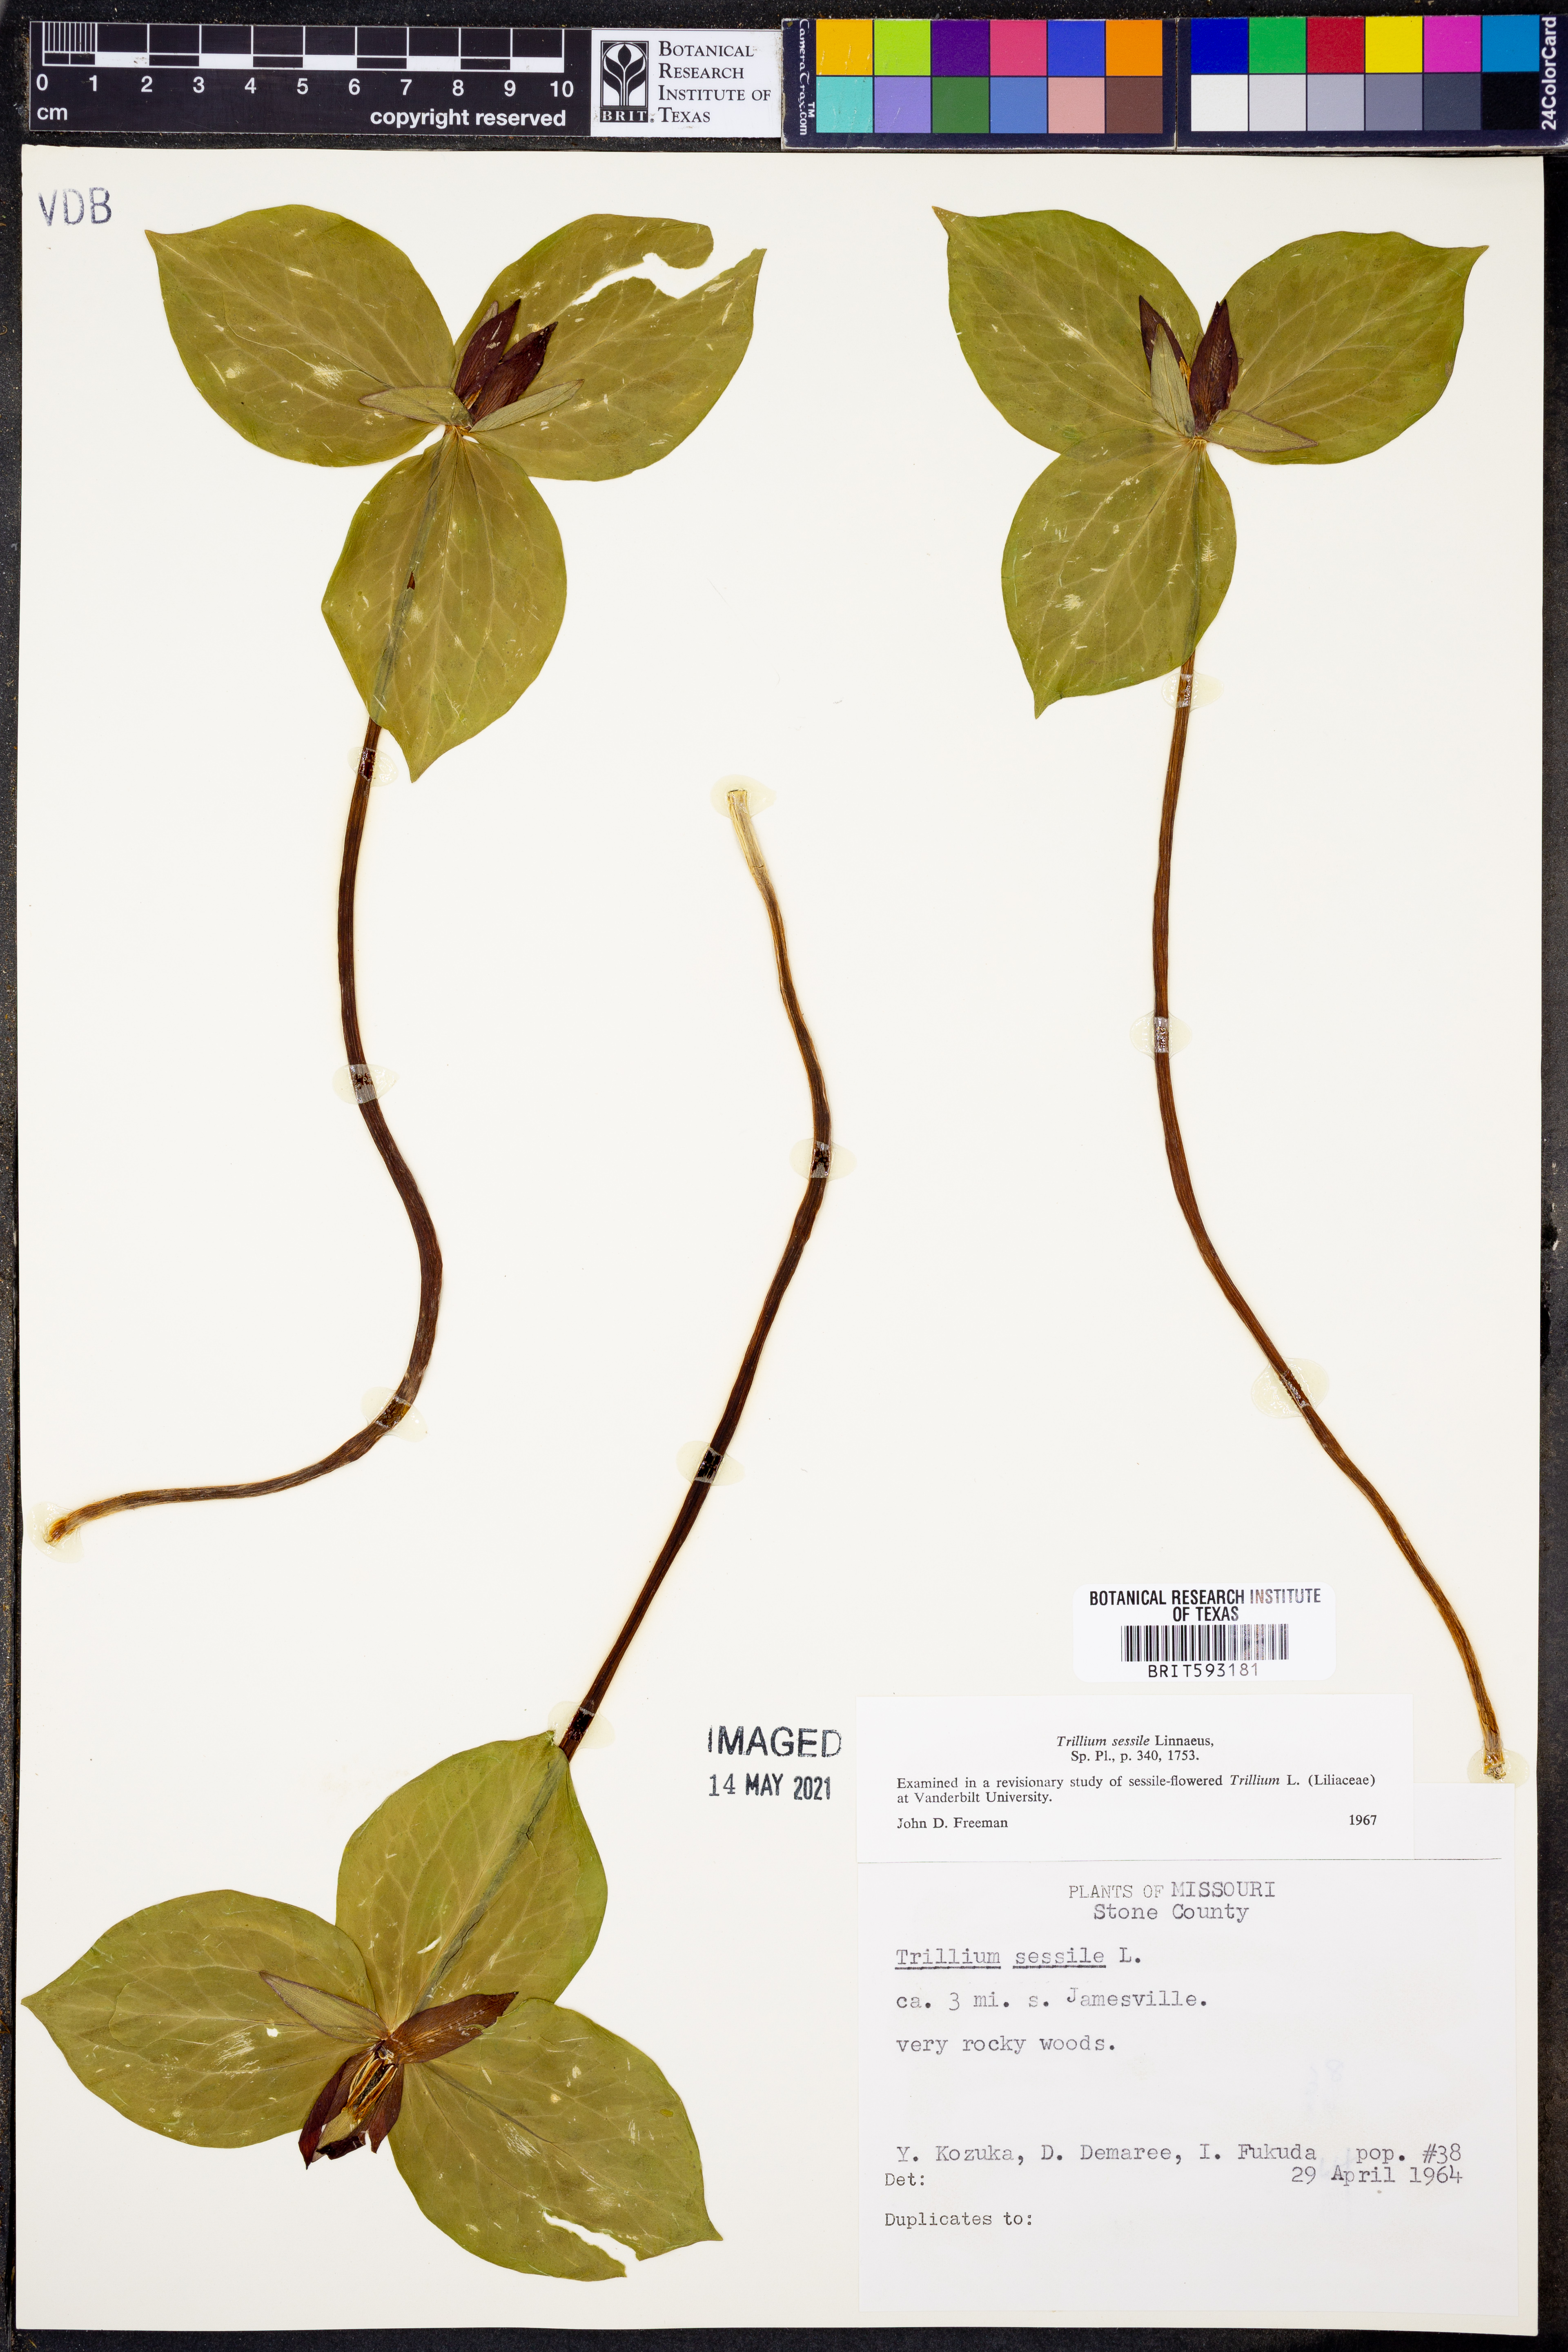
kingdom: Plantae
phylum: Tracheophyta
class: Liliopsida
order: Liliales
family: Melanthiaceae
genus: Trillium
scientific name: Trillium sessile
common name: Sessile trillium
